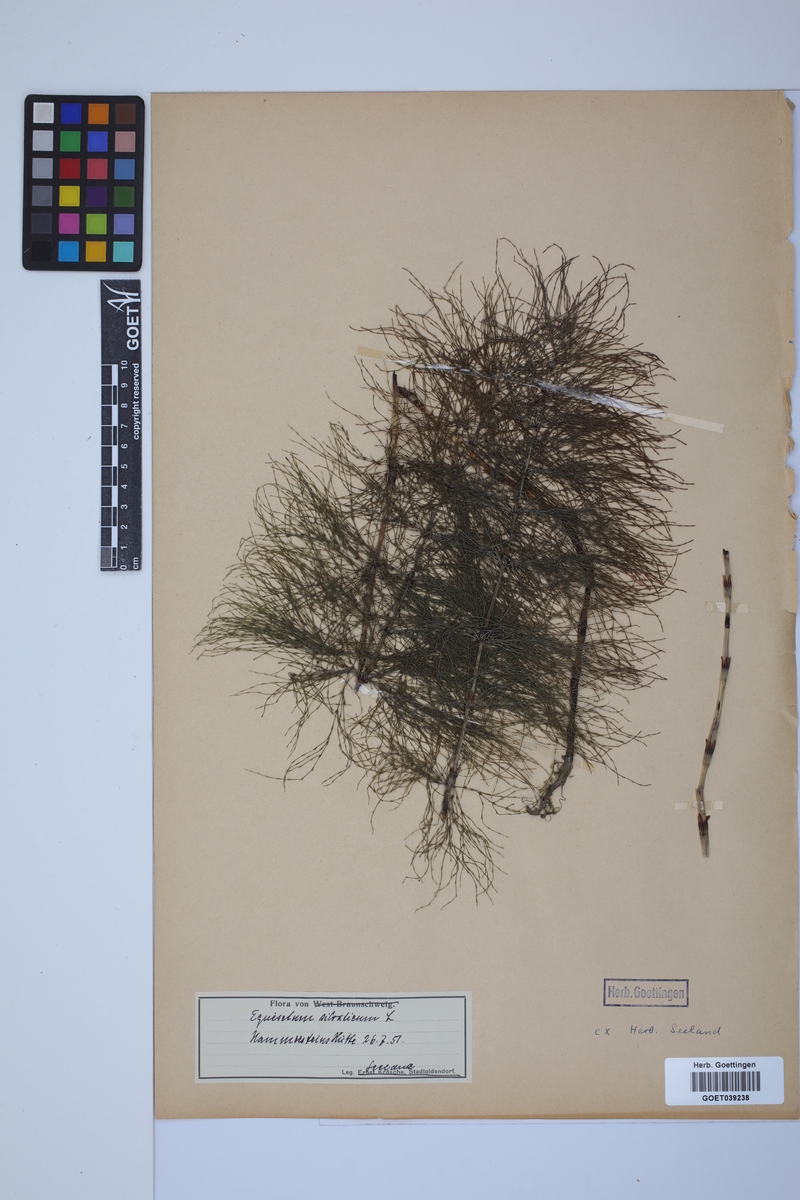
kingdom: Plantae
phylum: Tracheophyta
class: Polypodiopsida
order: Equisetales
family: Equisetaceae
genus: Equisetum
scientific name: Equisetum sylvaticum
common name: Wood horsetail
